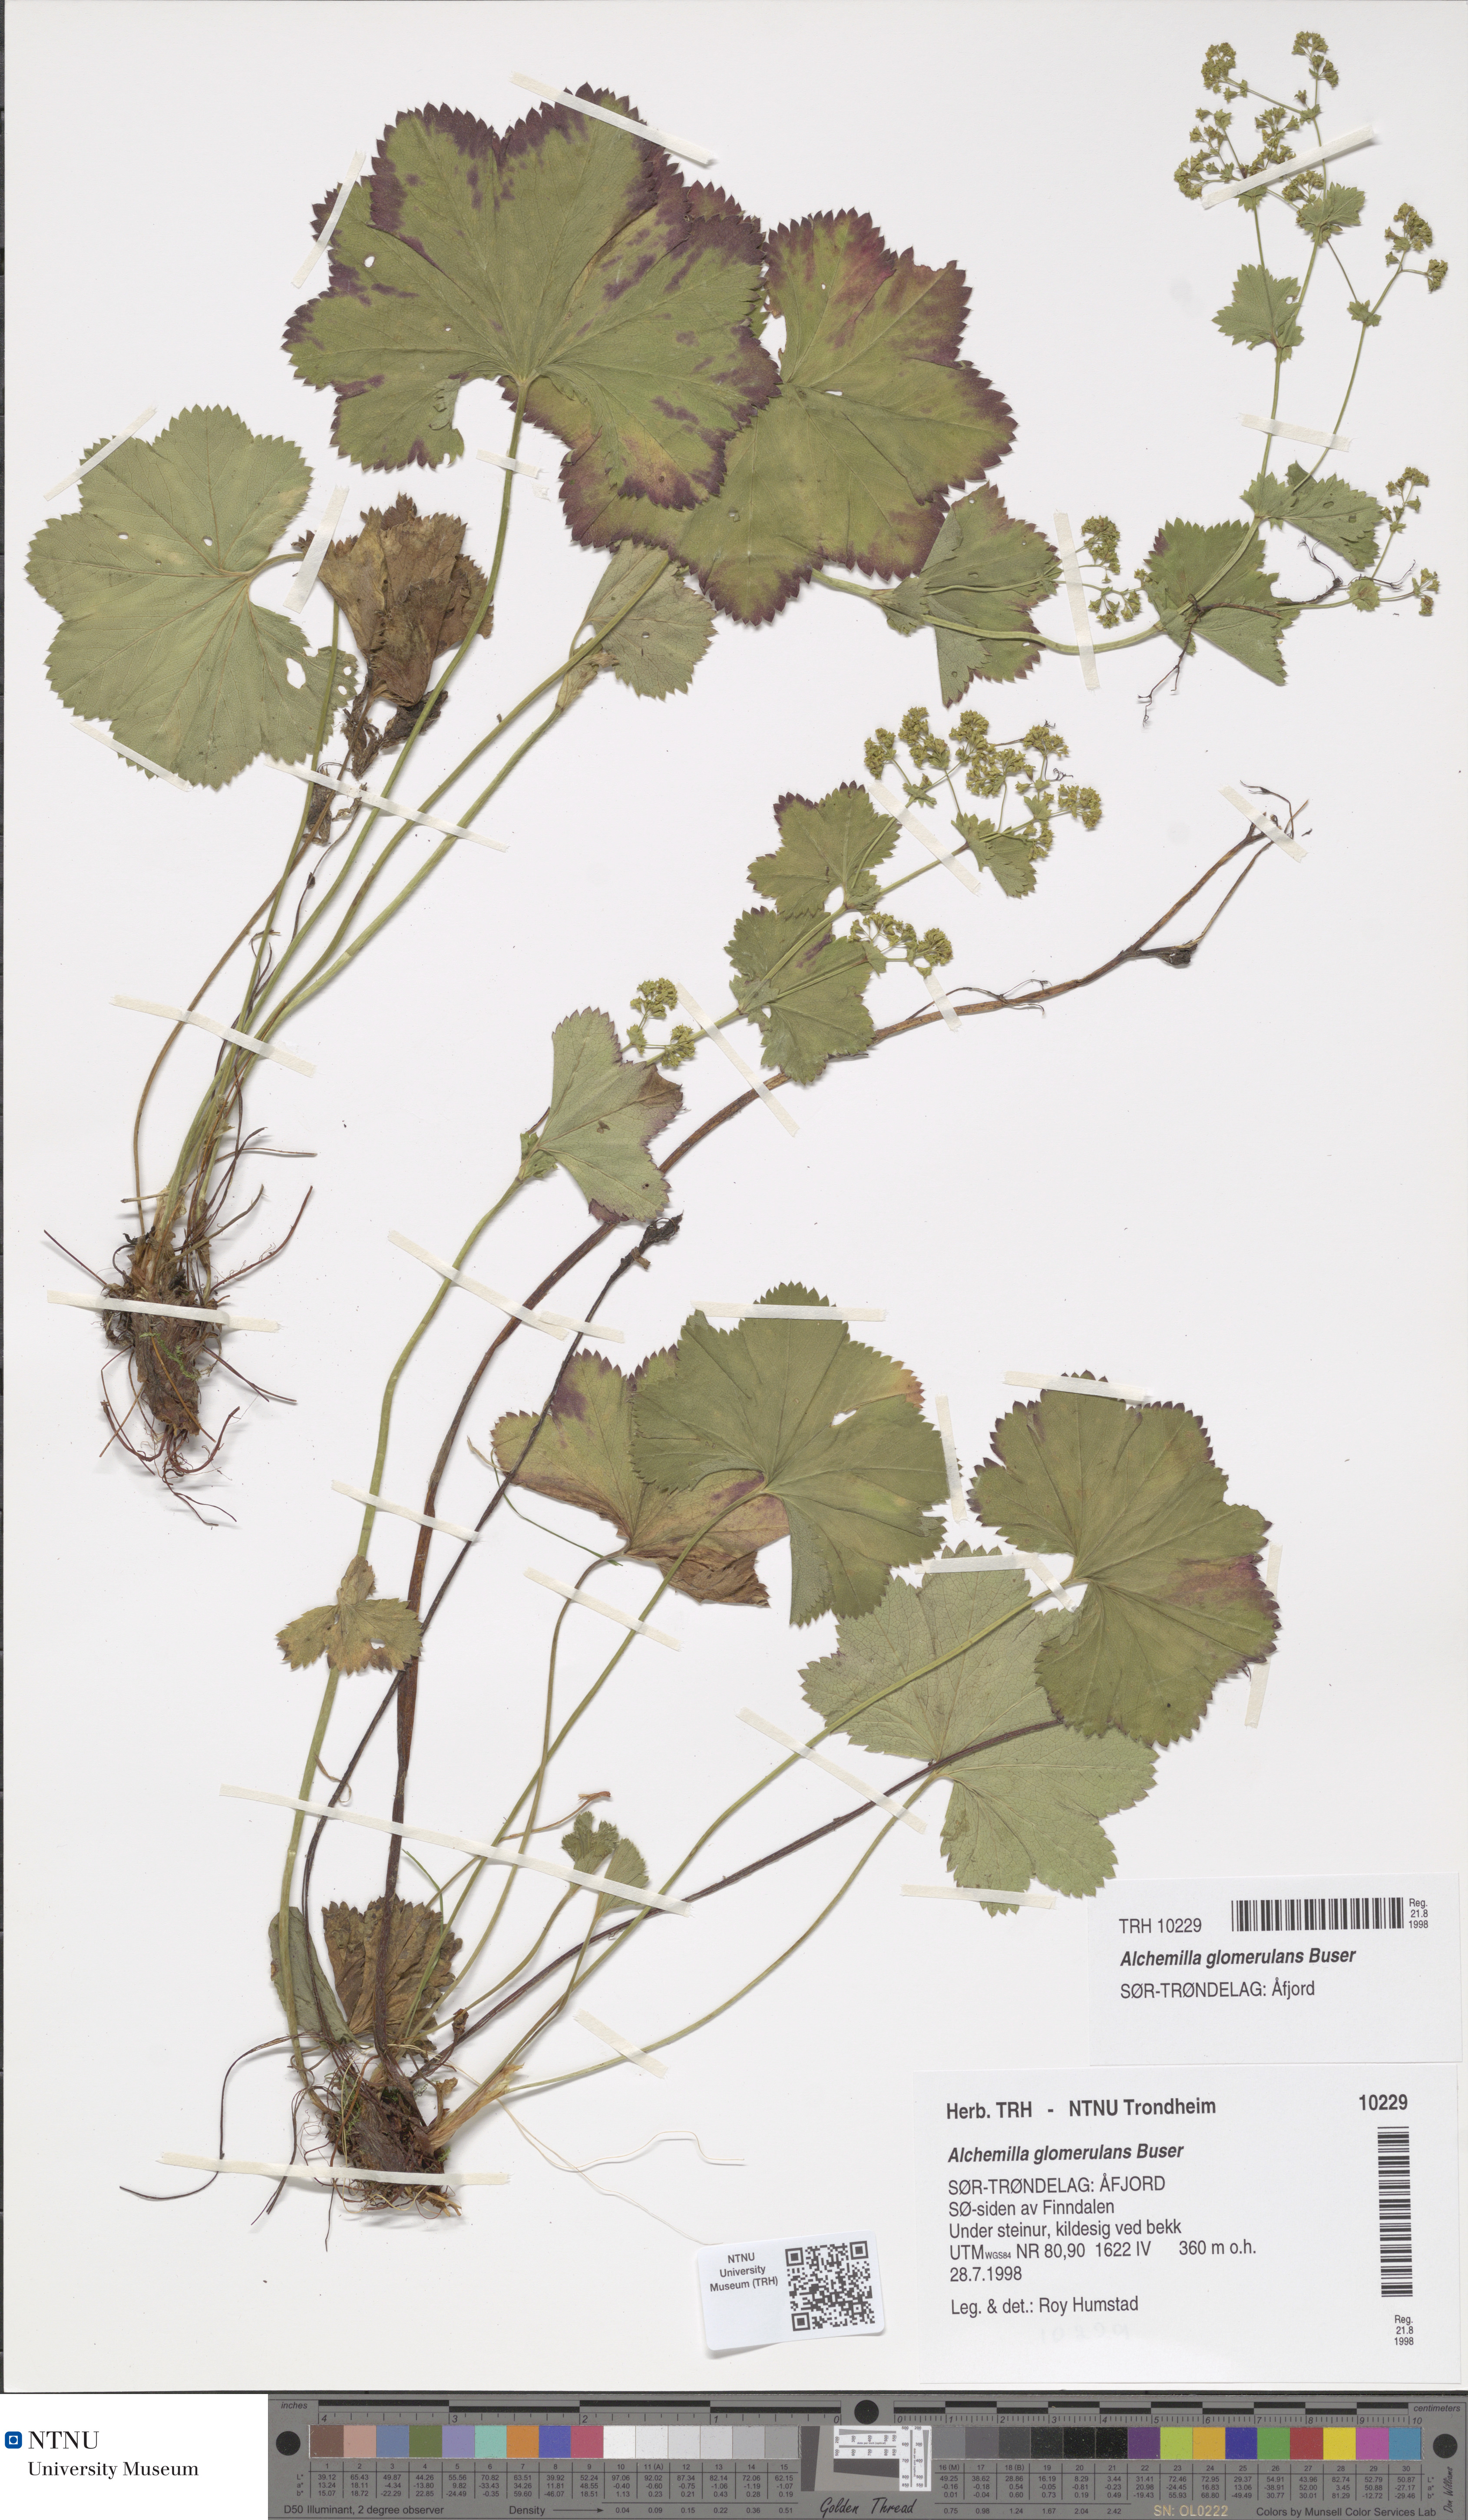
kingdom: Plantae
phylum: Tracheophyta
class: Magnoliopsida
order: Rosales
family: Rosaceae
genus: Alchemilla
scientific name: Alchemilla glomerulans
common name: Clustered lady's mantle
